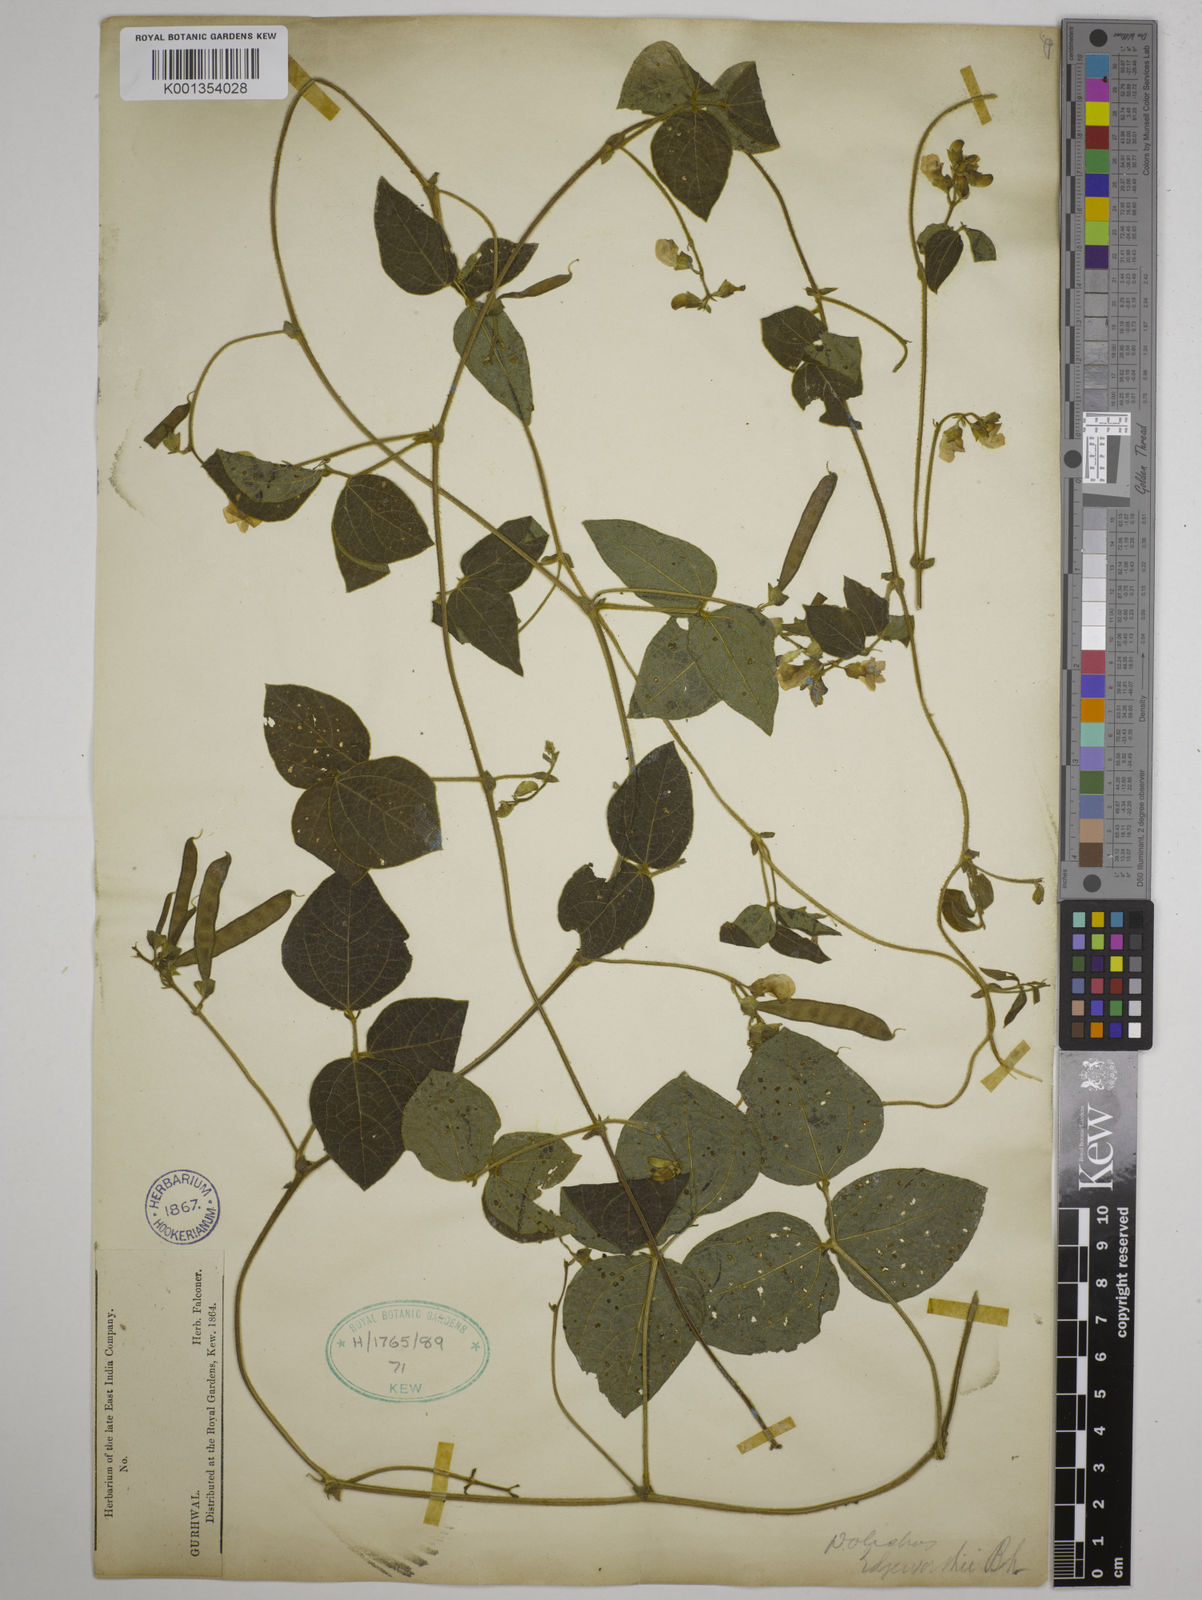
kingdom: Plantae
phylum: Tracheophyta
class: Magnoliopsida
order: Fabales
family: Fabaceae
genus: Dolichos
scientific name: Dolichos
